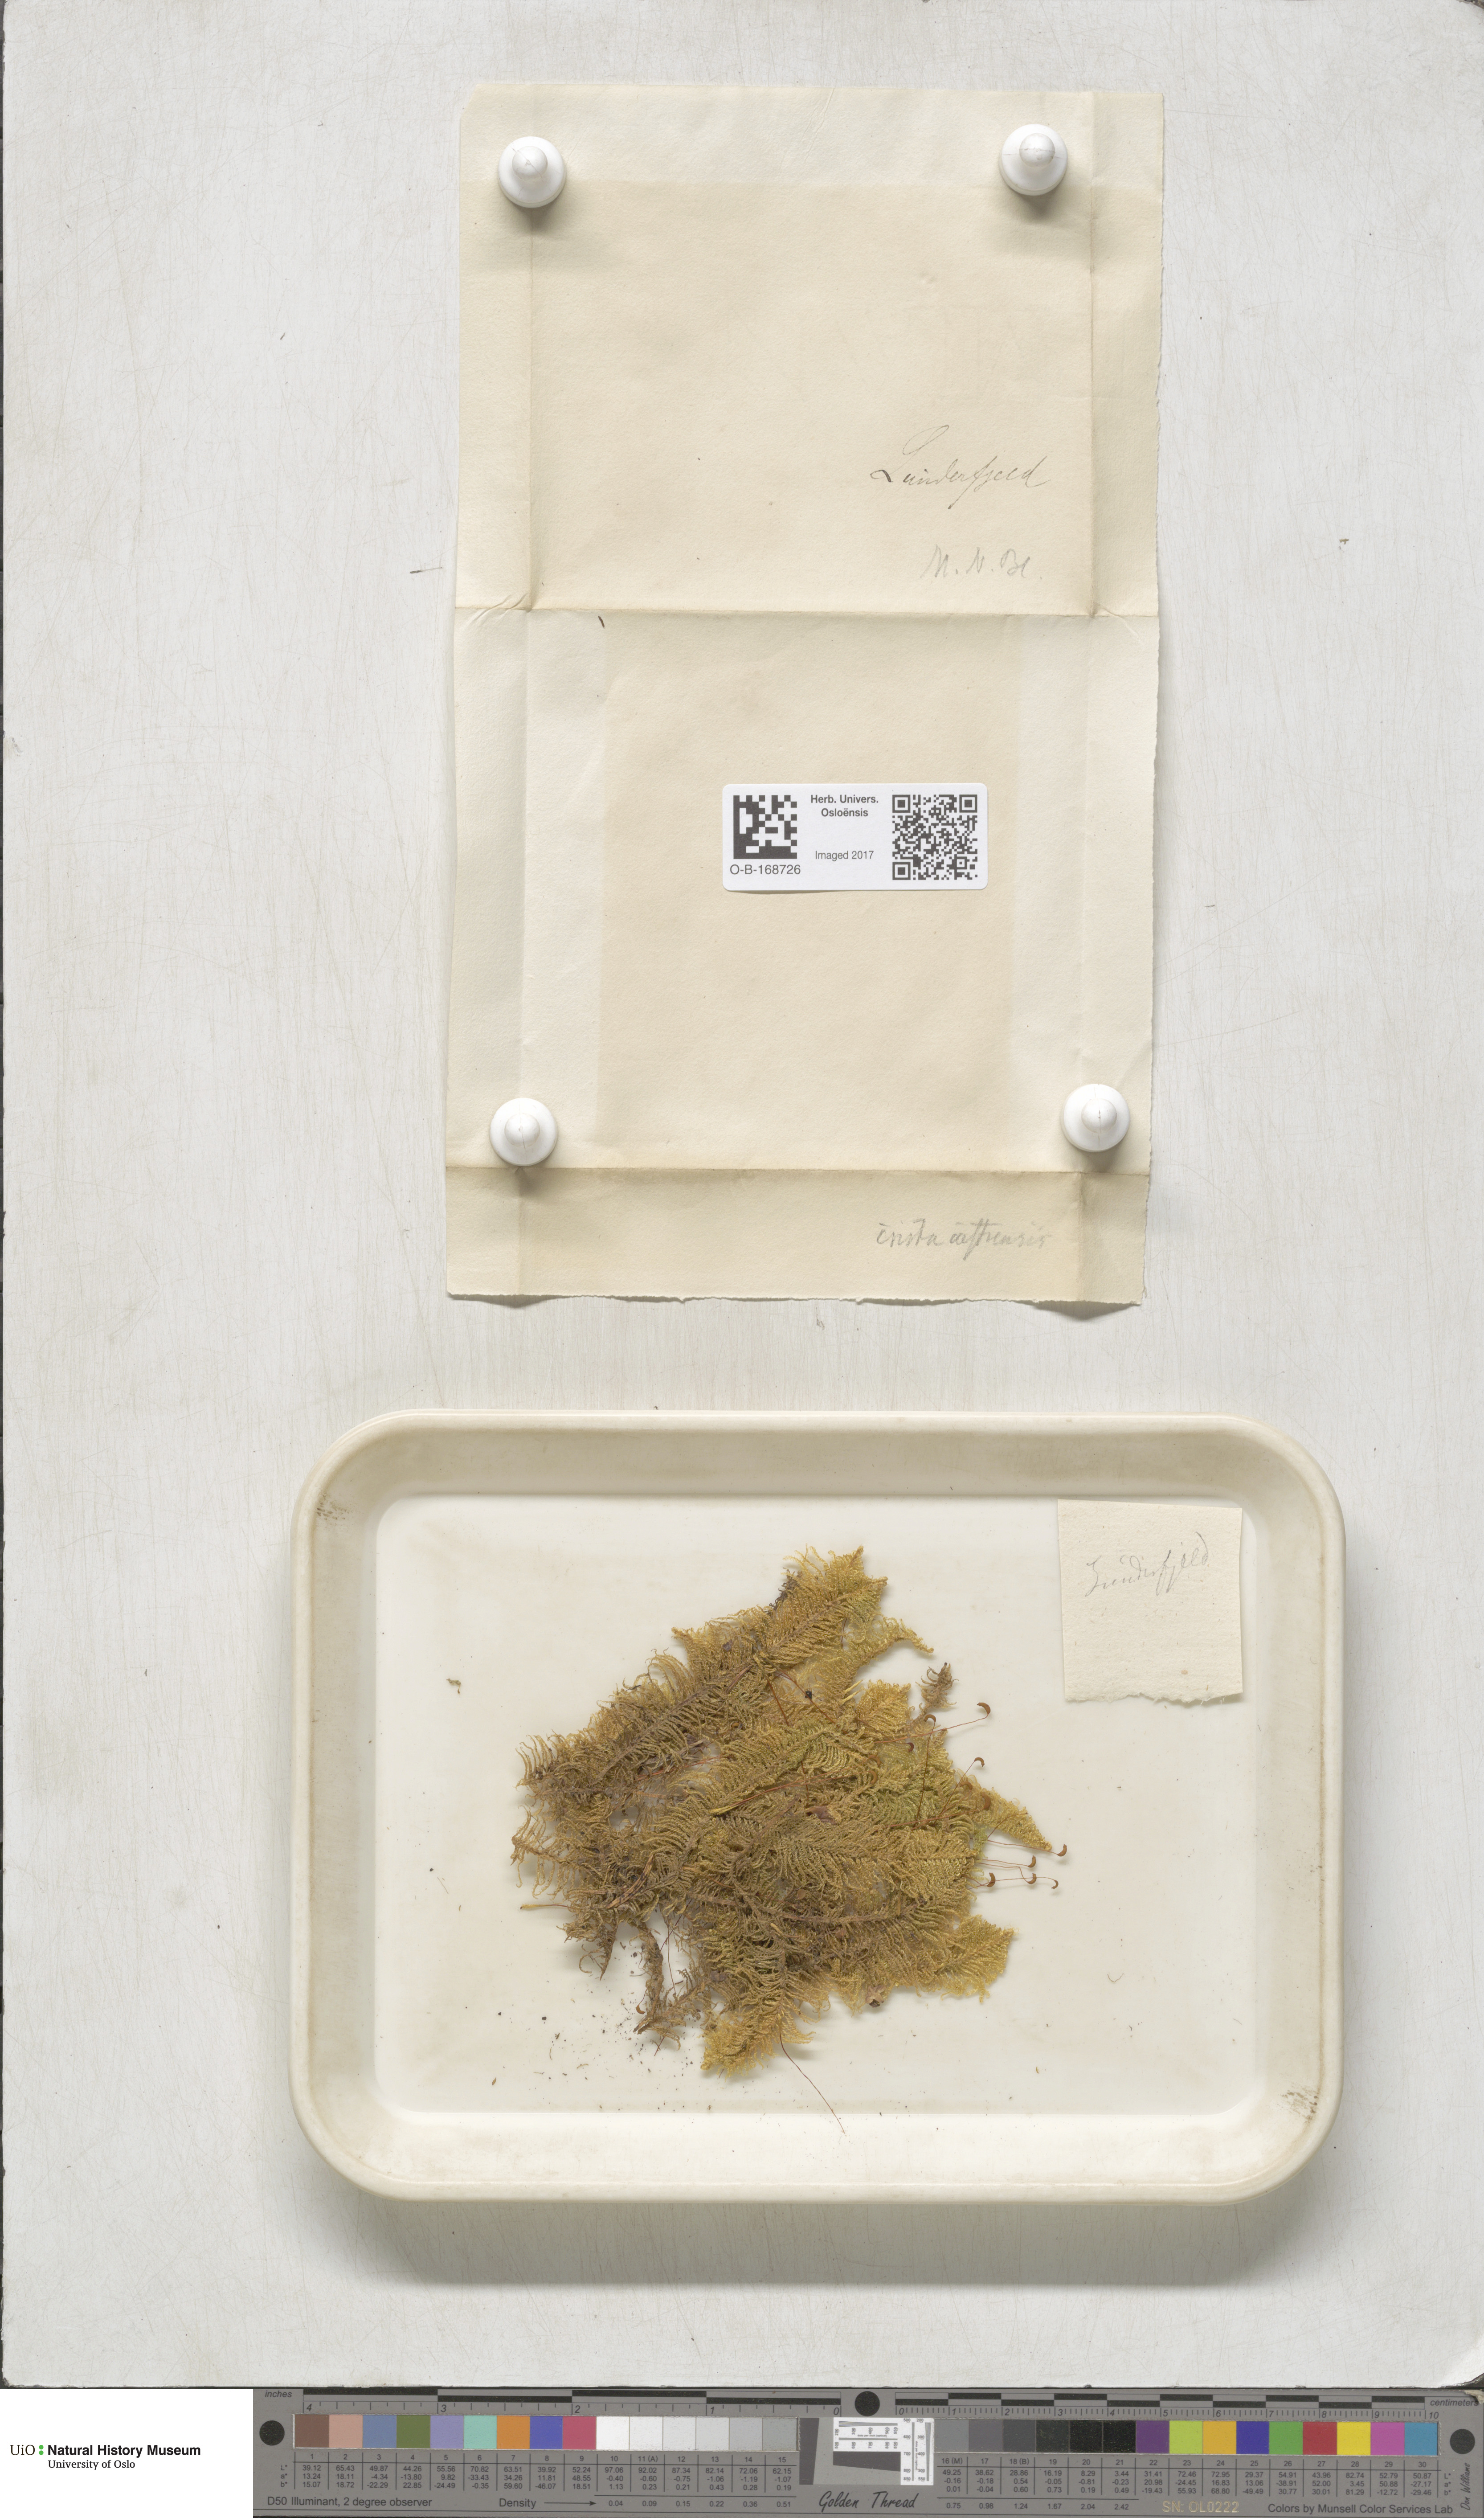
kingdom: Plantae
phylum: Bryophyta
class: Bryopsida
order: Hypnales
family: Pylaisiaceae
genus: Ptilium
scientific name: Ptilium crista-castrensis
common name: Knight's plume moss
